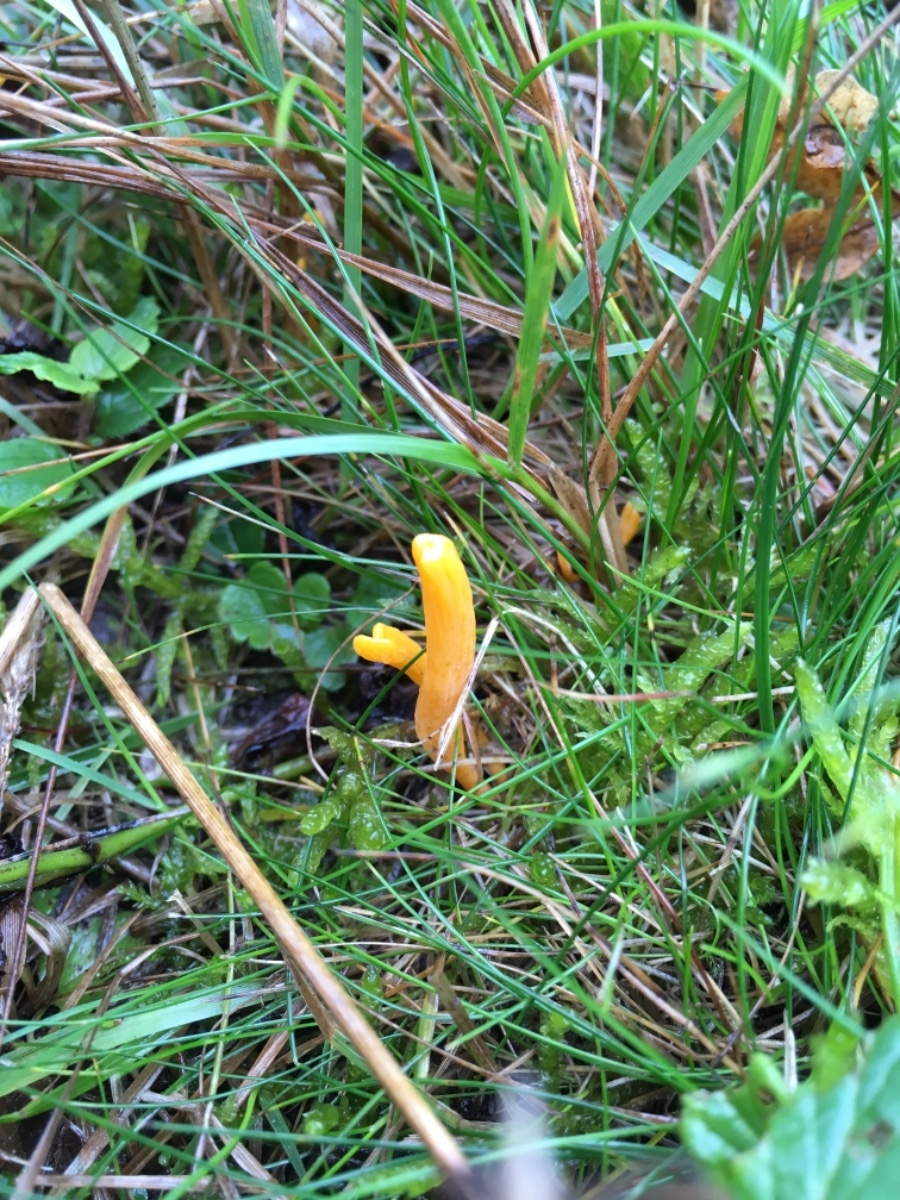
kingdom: Fungi
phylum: Basidiomycota
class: Agaricomycetes
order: Agaricales
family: Clavariaceae
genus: Clavulinopsis
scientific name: Clavulinopsis
